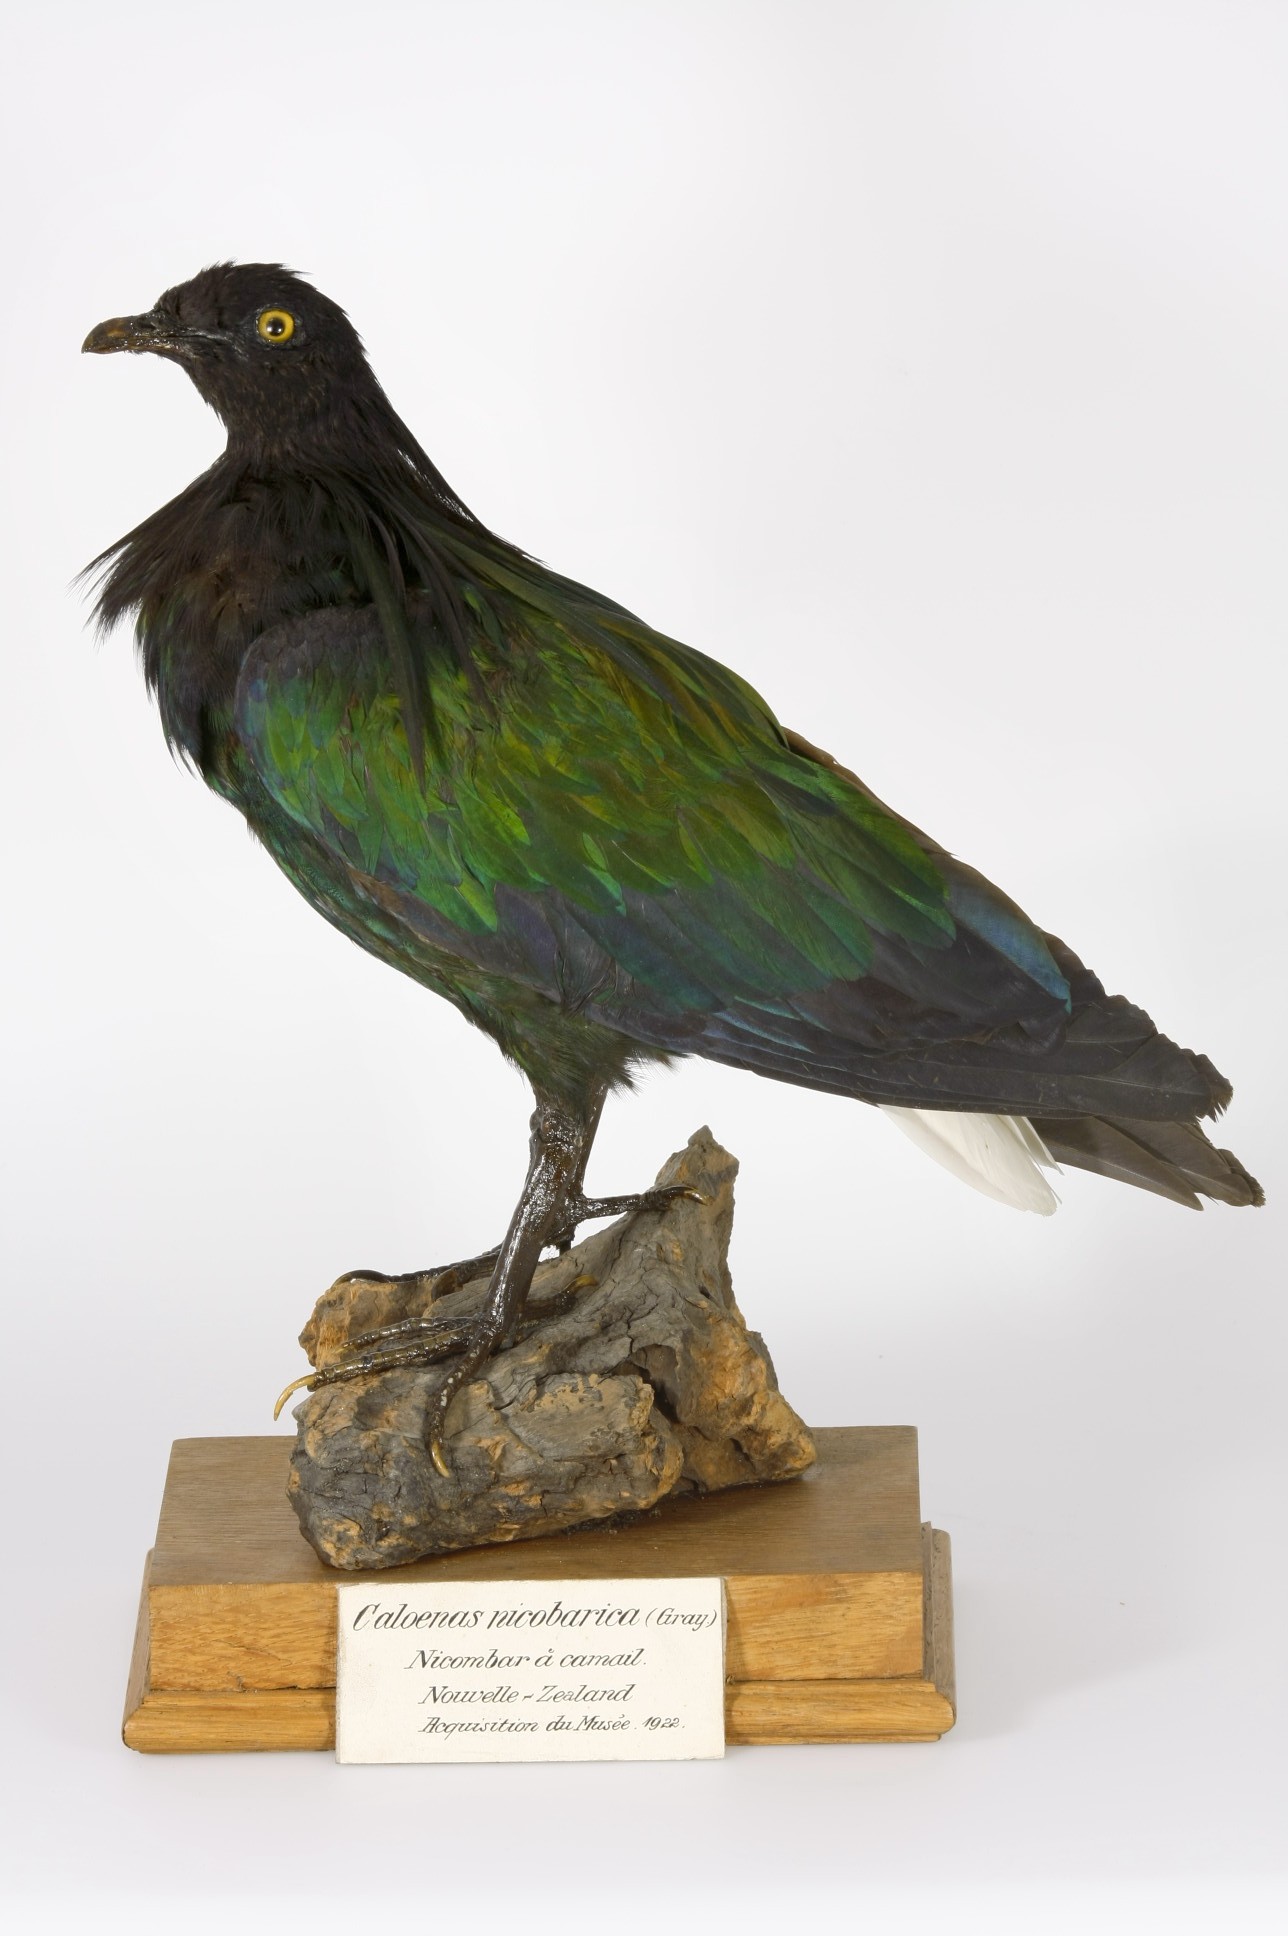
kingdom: Animalia
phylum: Chordata
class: Aves
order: Columbiformes
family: Columbidae
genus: Caloenas
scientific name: Caloenas nicobarica
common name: Nicobar pigeon
